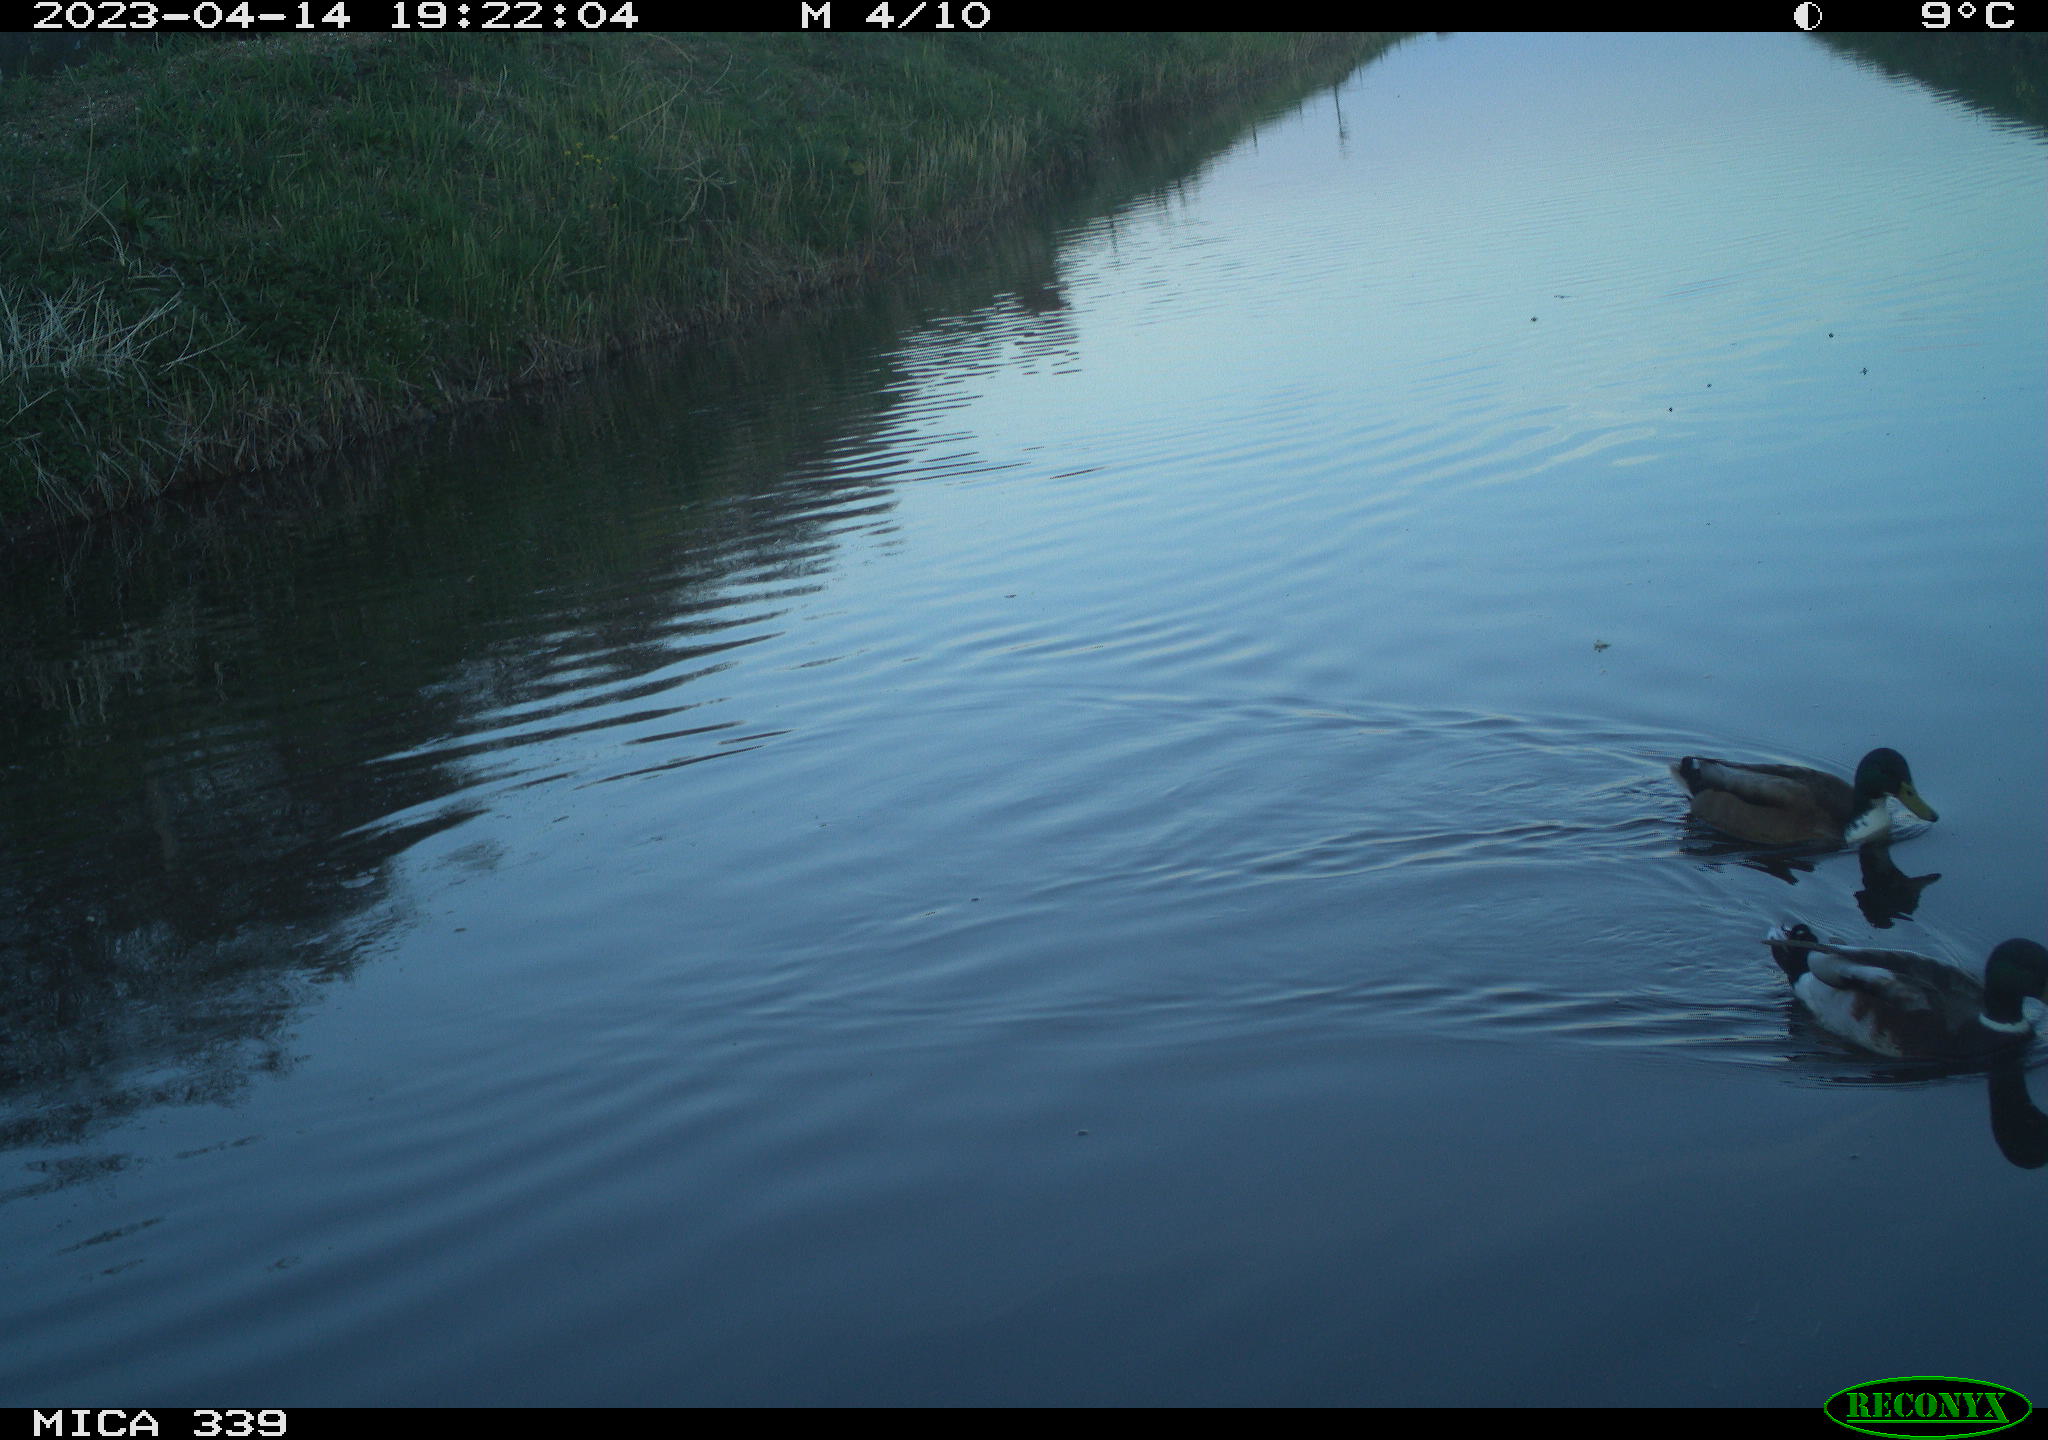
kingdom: Animalia
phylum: Chordata
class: Aves
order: Anseriformes
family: Anatidae
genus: Anas
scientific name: Anas
